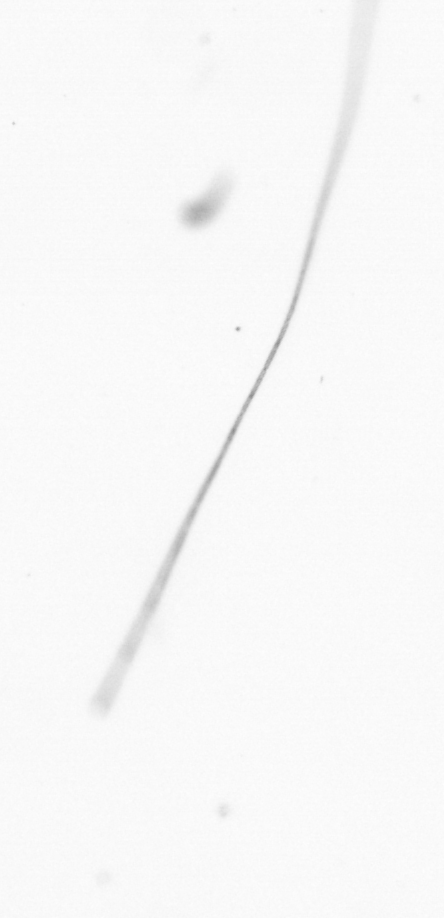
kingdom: Chromista
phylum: Ochrophyta
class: Bacillariophyceae
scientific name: Bacillariophyceae
